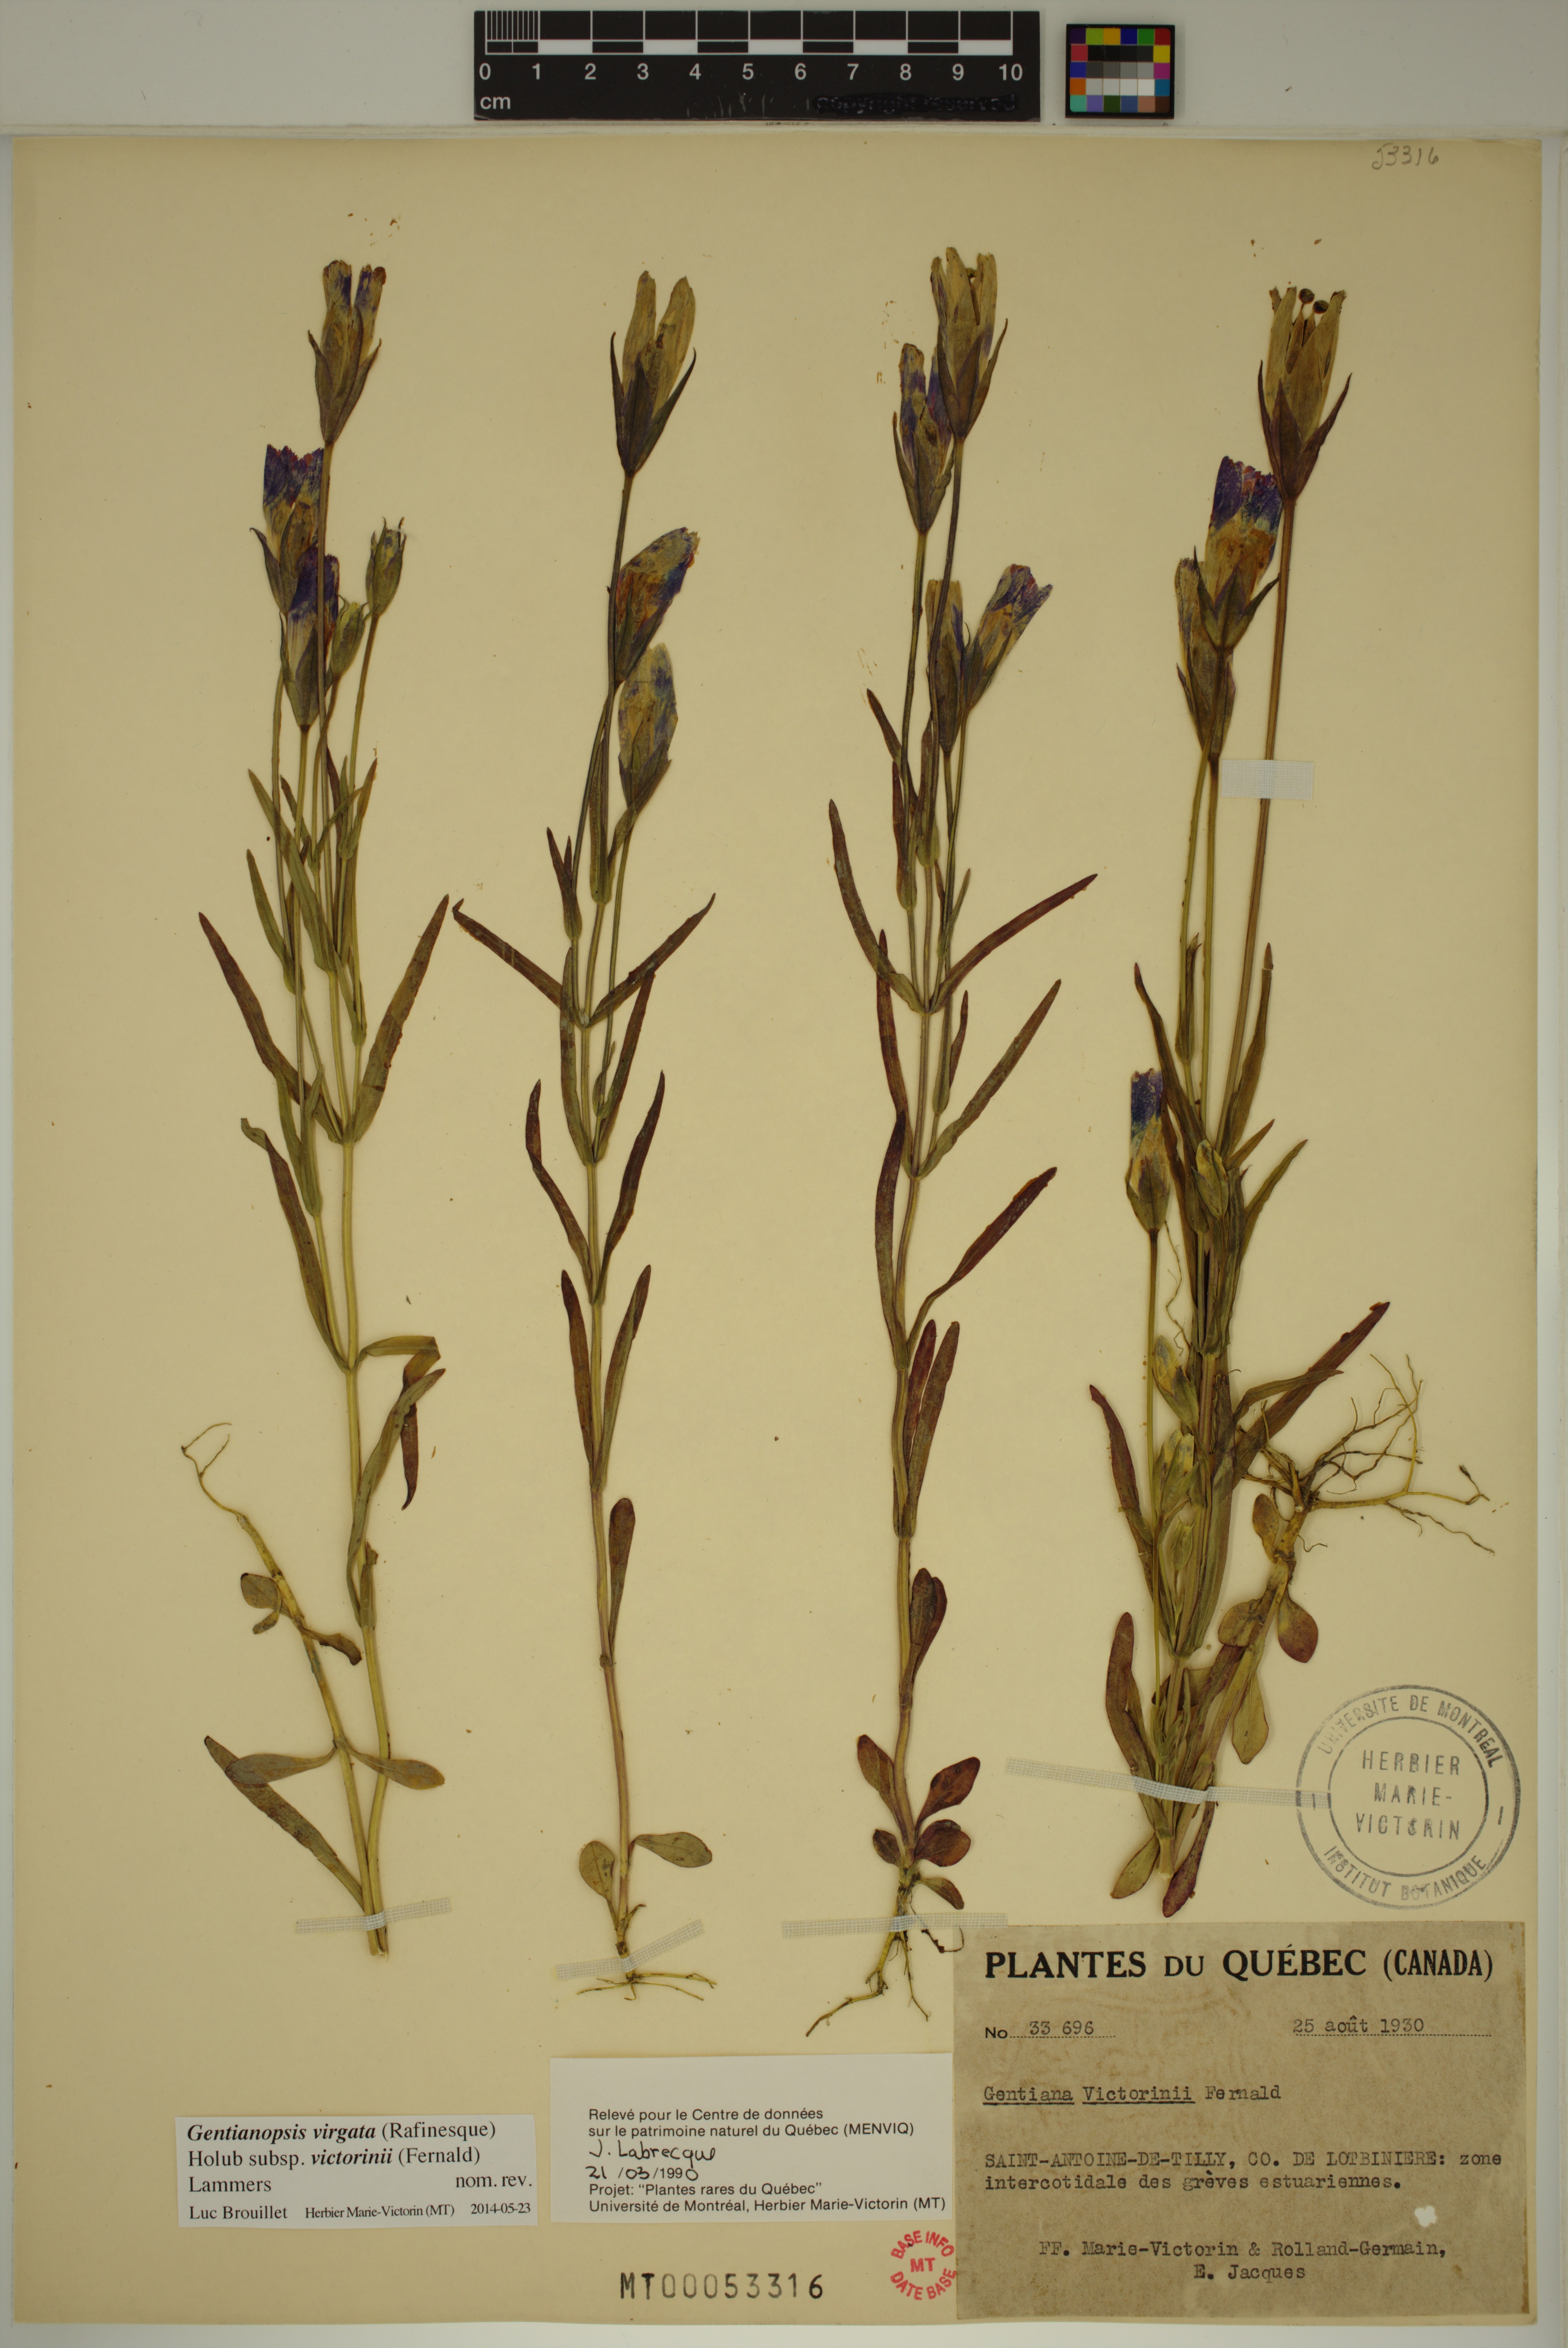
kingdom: Plantae
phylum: Tracheophyta
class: Magnoliopsida
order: Gentianales
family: Gentianaceae
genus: Gentianopsis
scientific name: Gentianopsis victorinii
